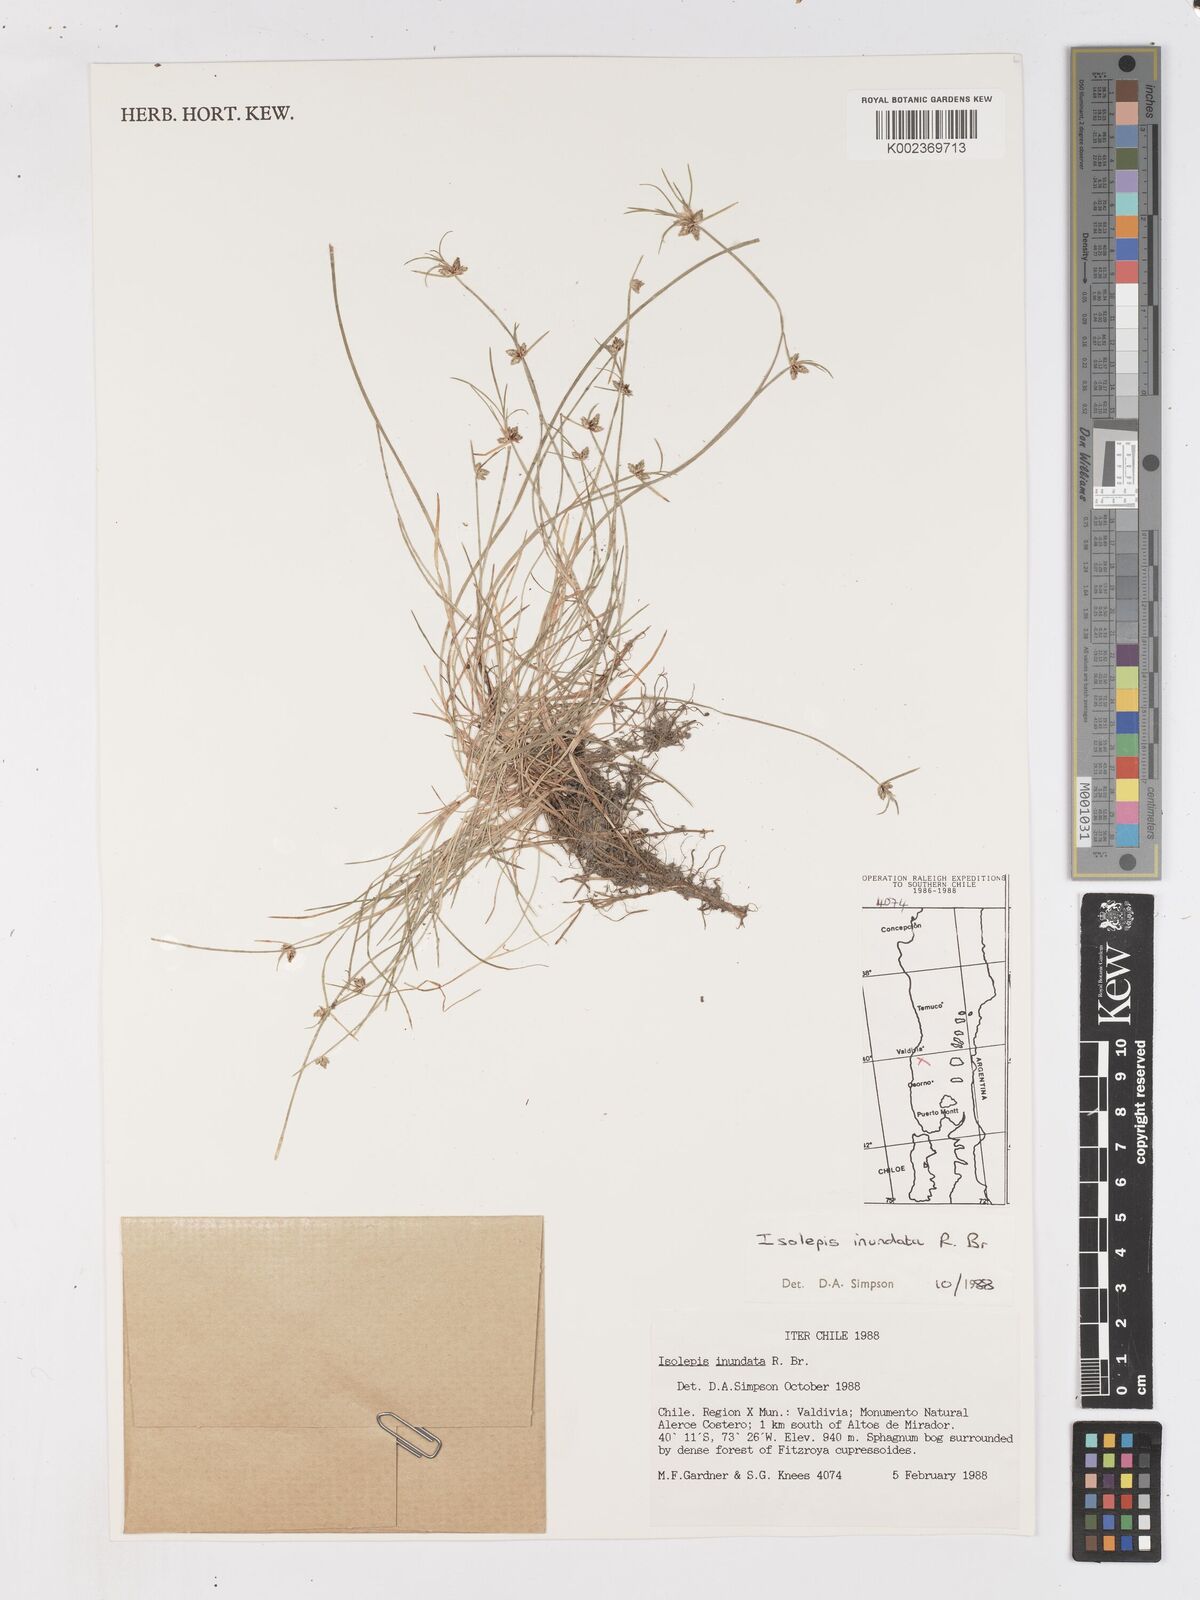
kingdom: Plantae
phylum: Tracheophyta
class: Liliopsida
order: Poales
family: Cyperaceae
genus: Isolepis
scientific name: Isolepis inundata
